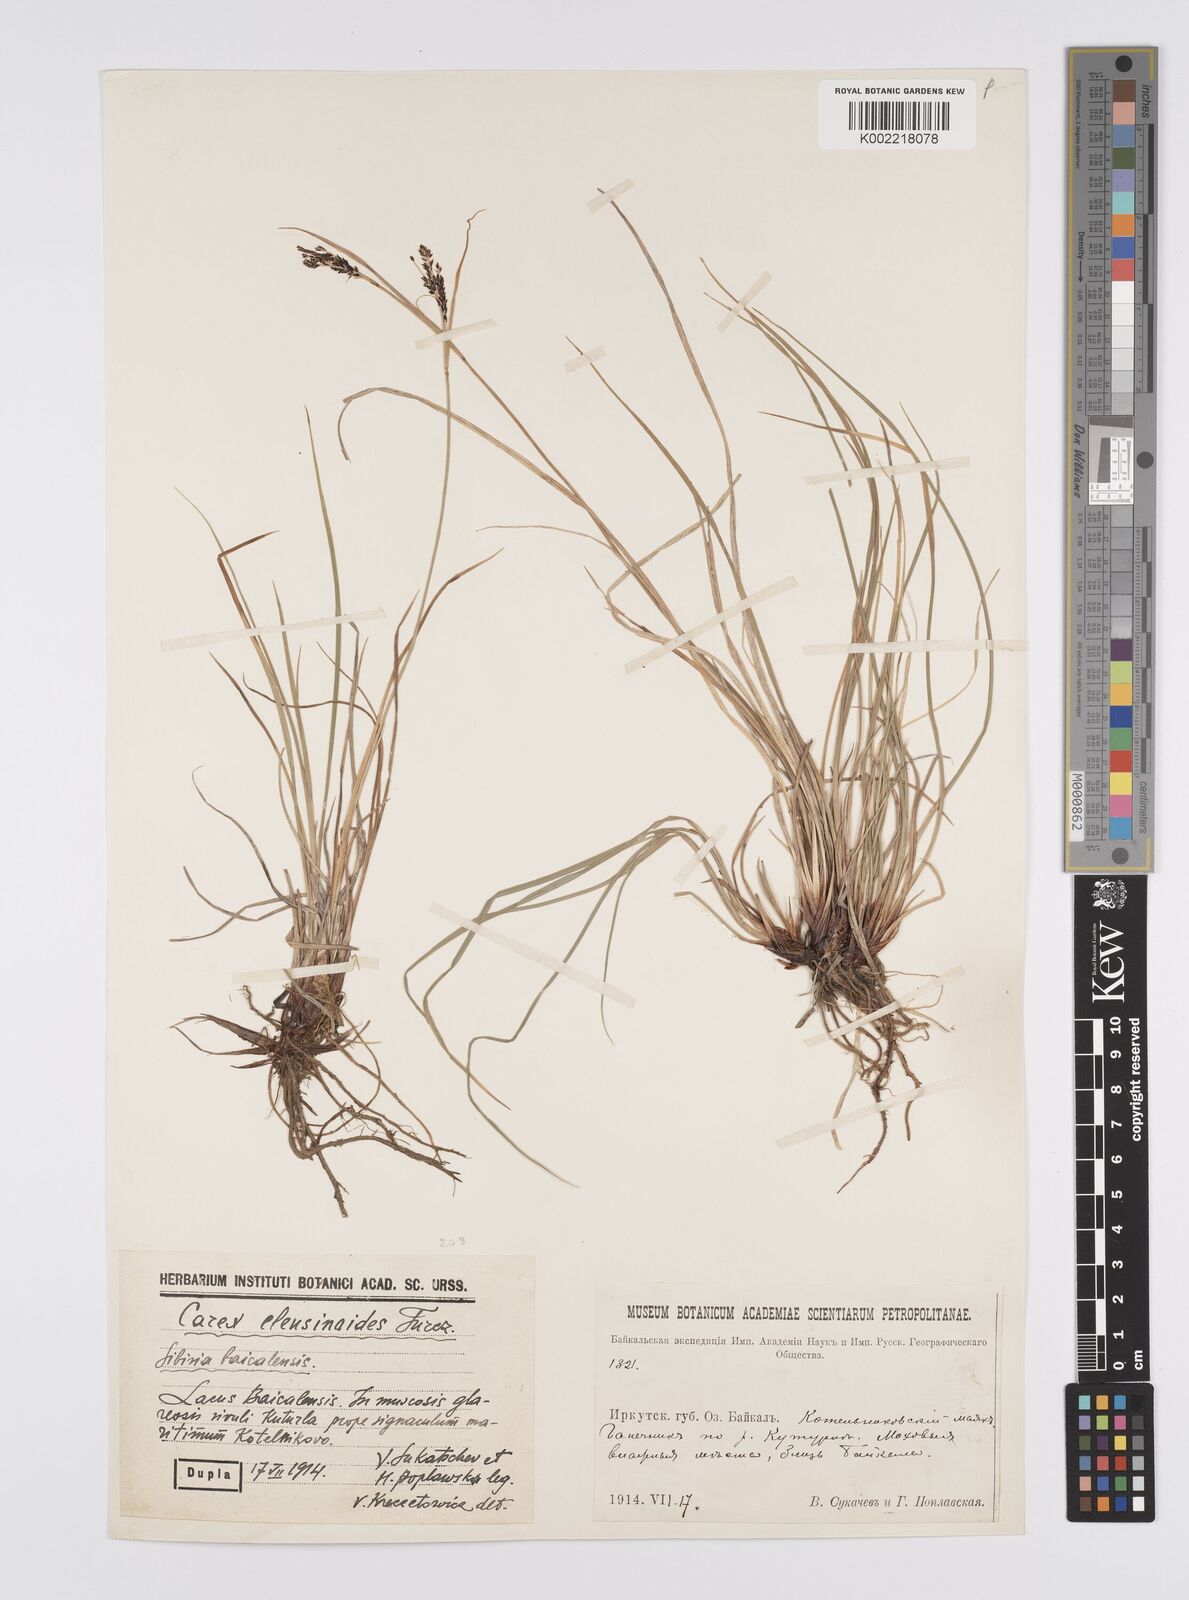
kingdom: Plantae
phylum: Tracheophyta
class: Liliopsida
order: Poales
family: Cyperaceae
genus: Carex
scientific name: Carex eleusinoides
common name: Goosegrass sedge
